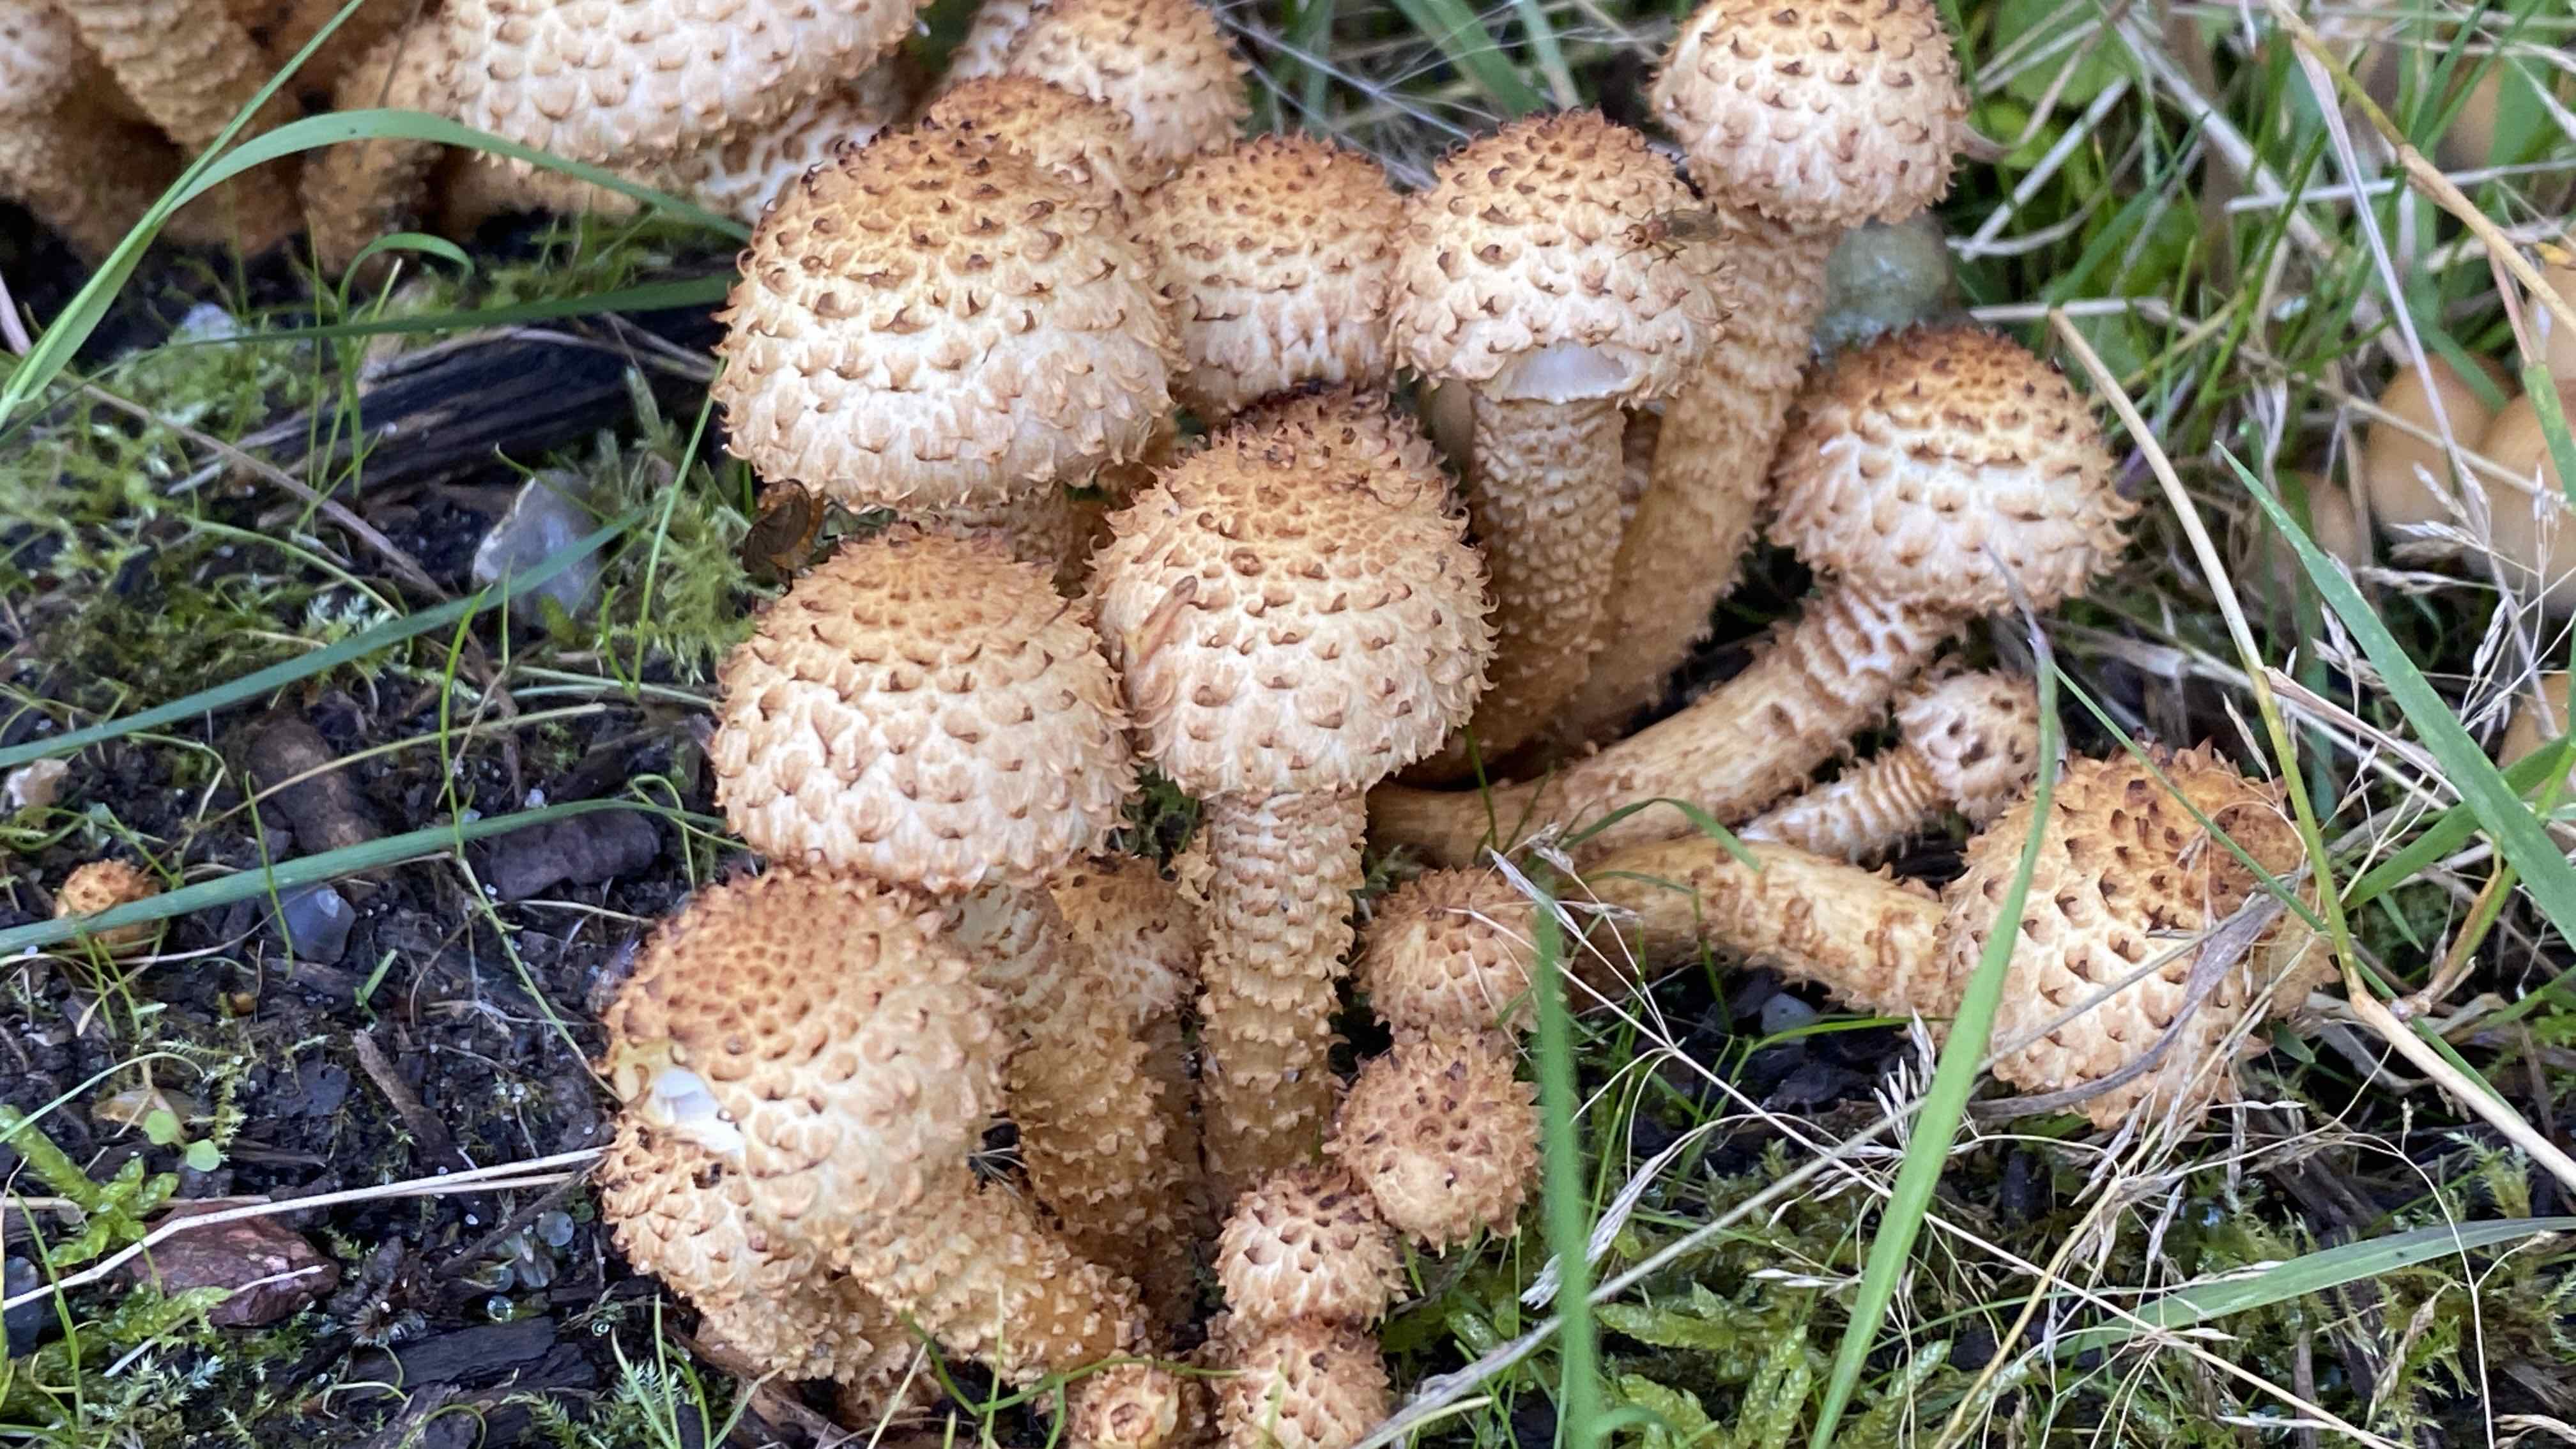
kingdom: Fungi
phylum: Basidiomycota
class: Agaricomycetes
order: Agaricales
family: Strophariaceae
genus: Pholiota
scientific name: Pholiota squarrosa
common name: krumskællet skælhat
